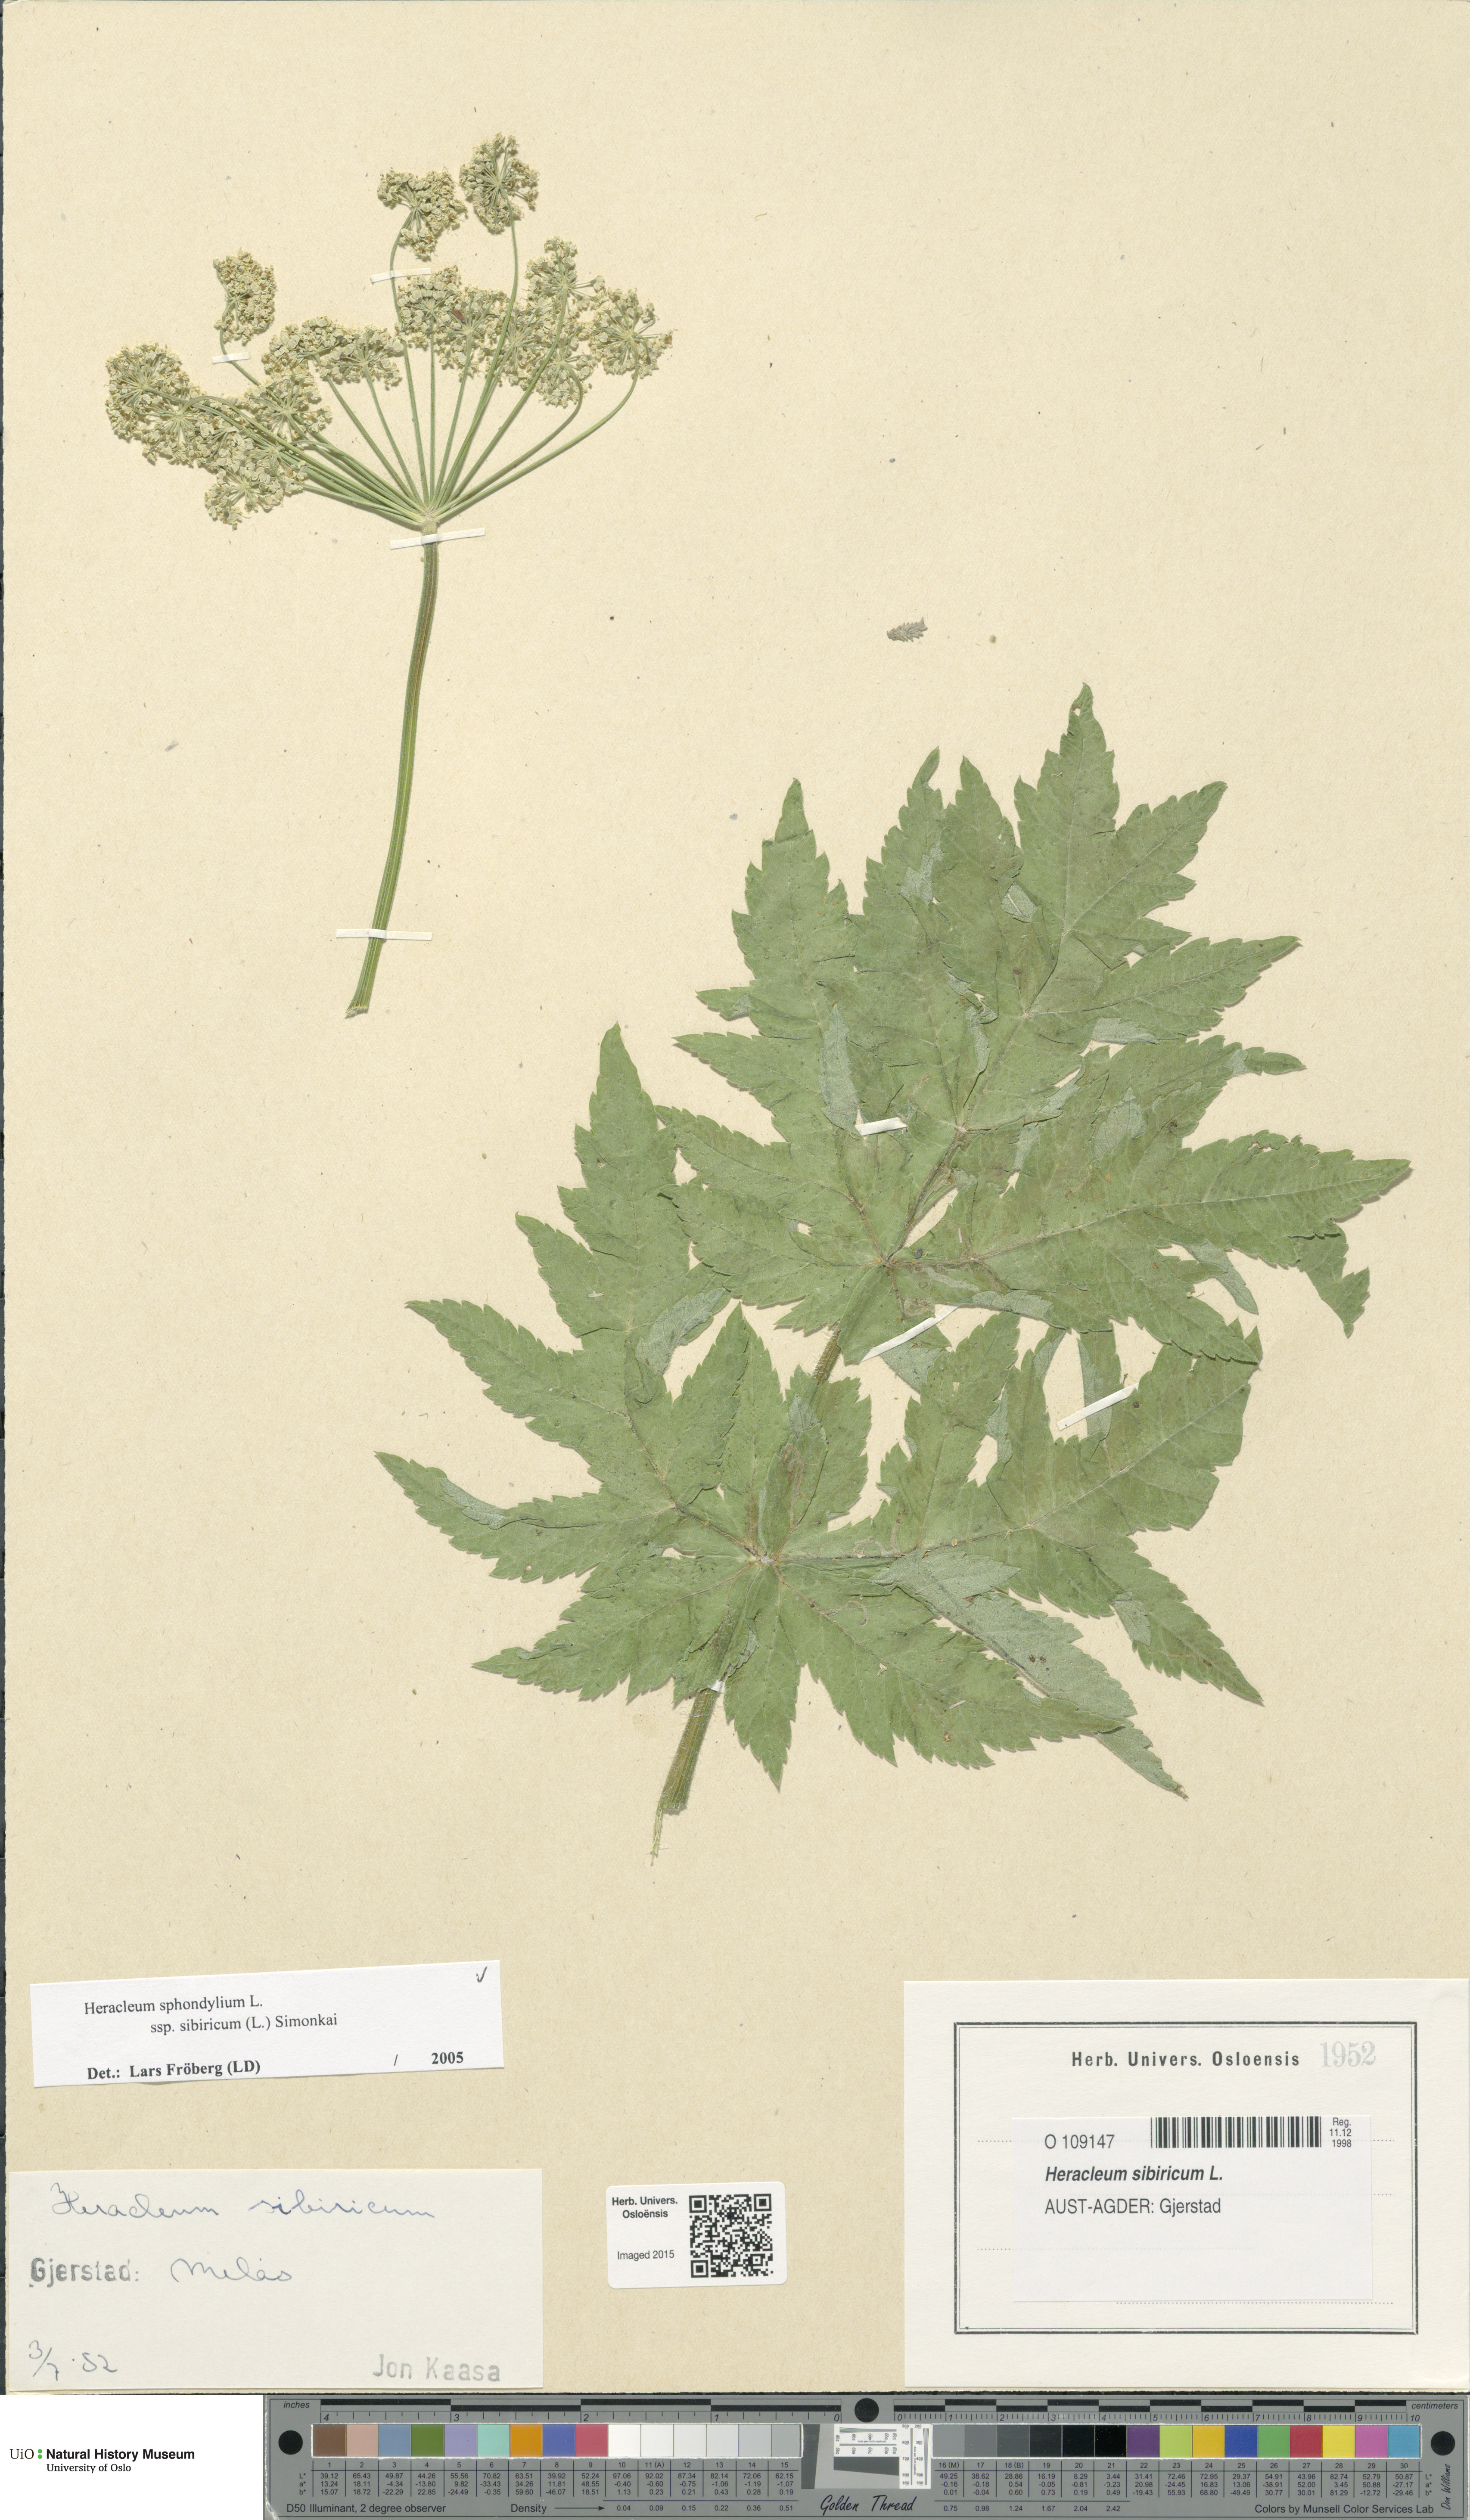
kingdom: Plantae
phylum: Tracheophyta
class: Magnoliopsida
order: Apiales
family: Apiaceae
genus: Heracleum
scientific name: Heracleum sphondylium
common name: Hogweed
